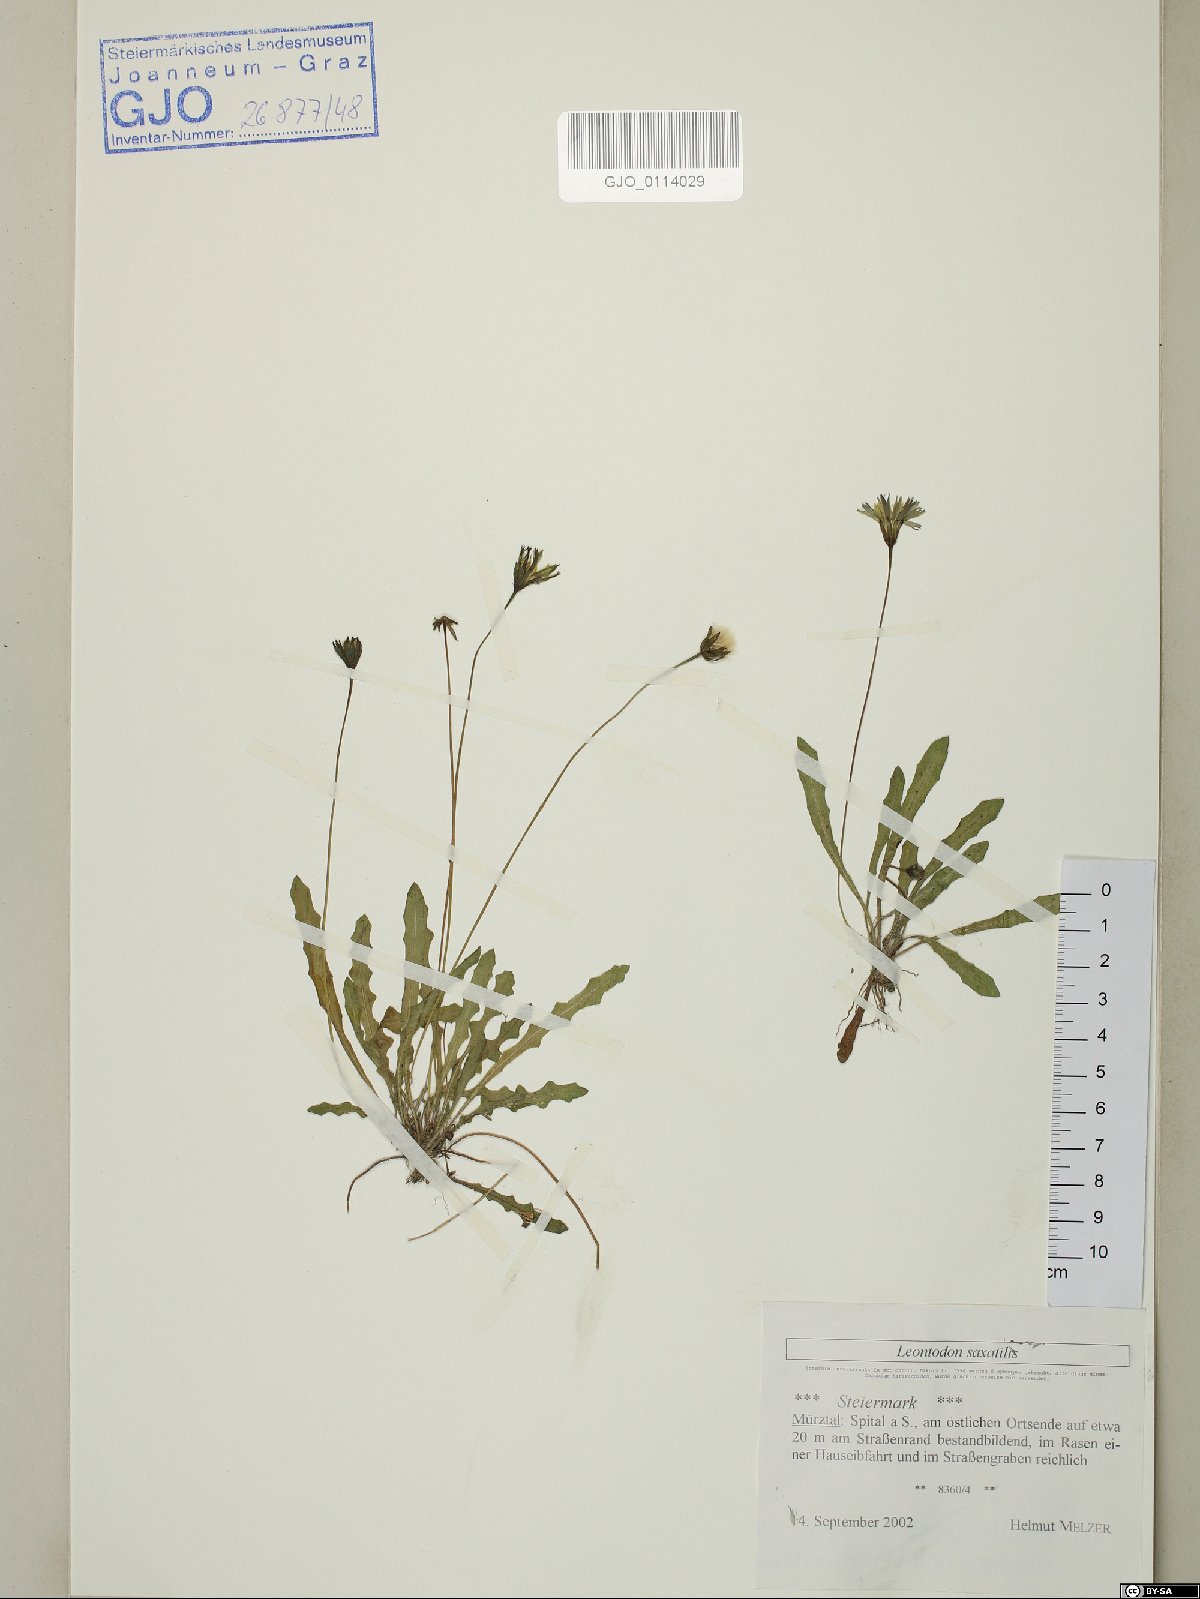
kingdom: Plantae
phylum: Tracheophyta
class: Magnoliopsida
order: Asterales
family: Asteraceae
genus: Thrincia
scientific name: Thrincia saxatilis
